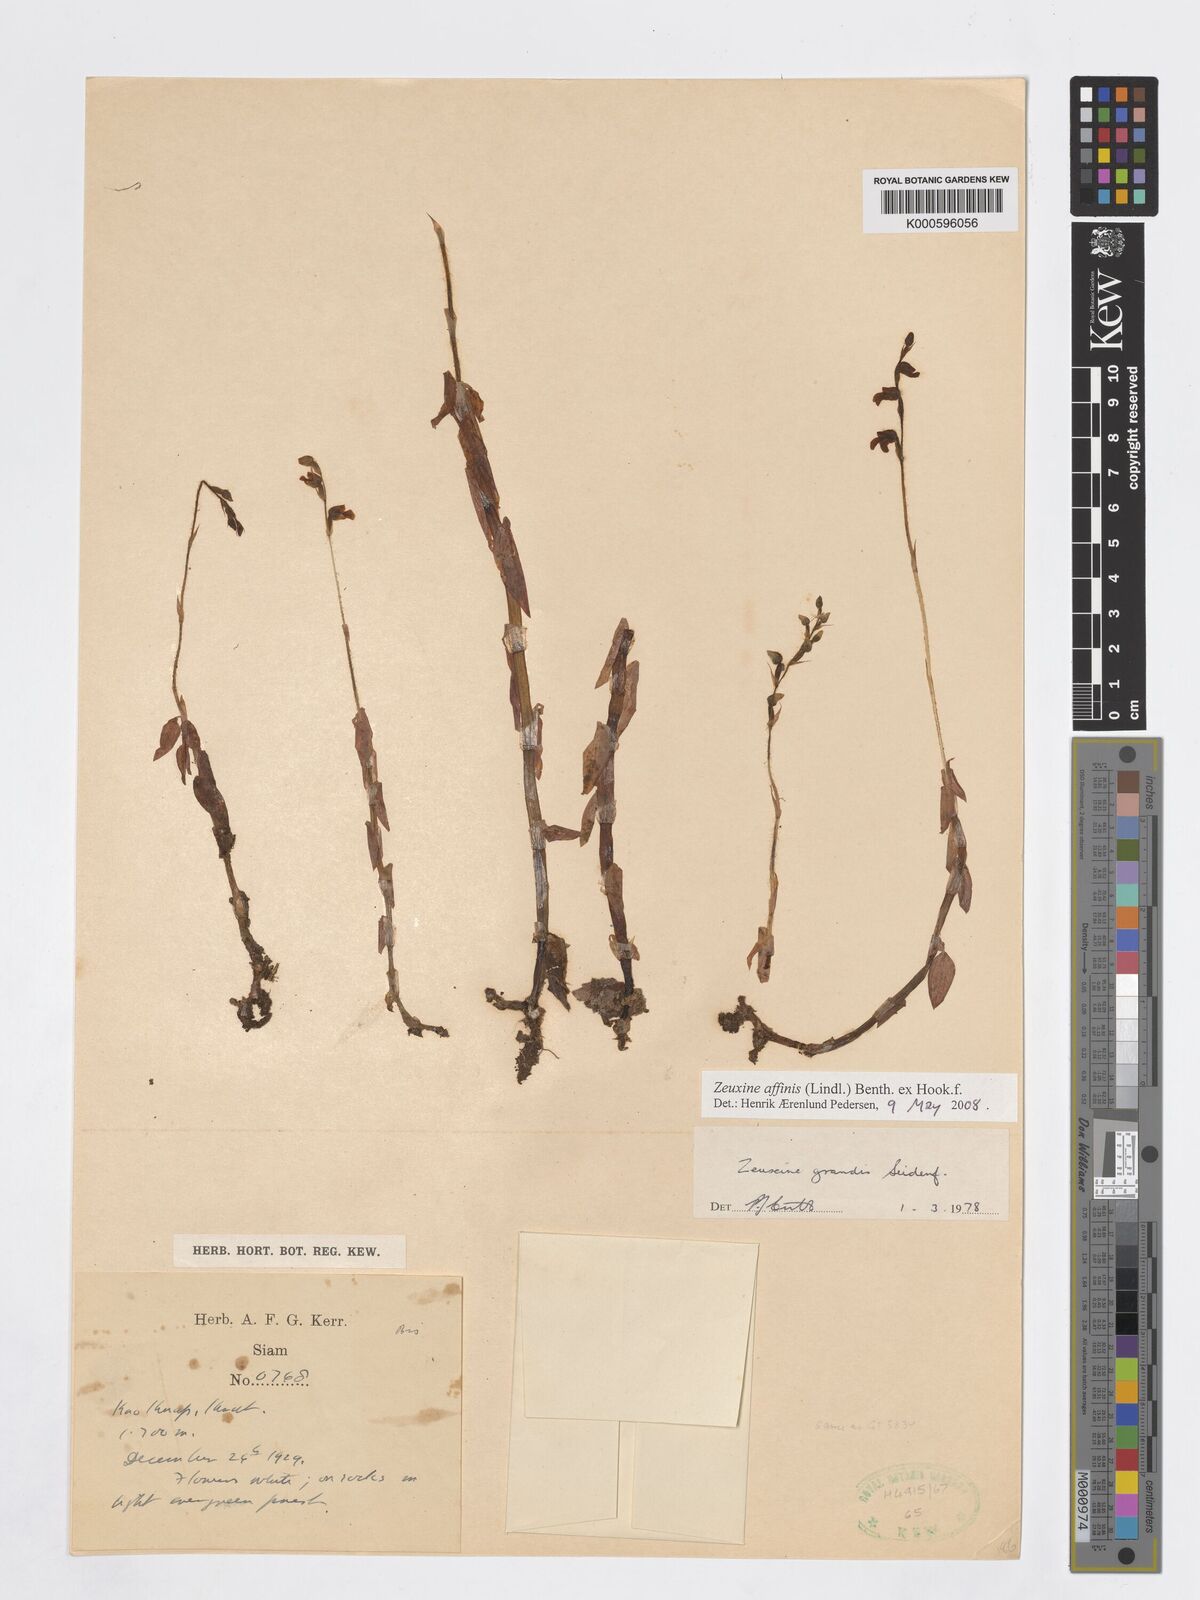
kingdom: Plantae
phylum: Tracheophyta
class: Liliopsida
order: Asparagales
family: Orchidaceae
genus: Zeuxine
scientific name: Zeuxine affinis
